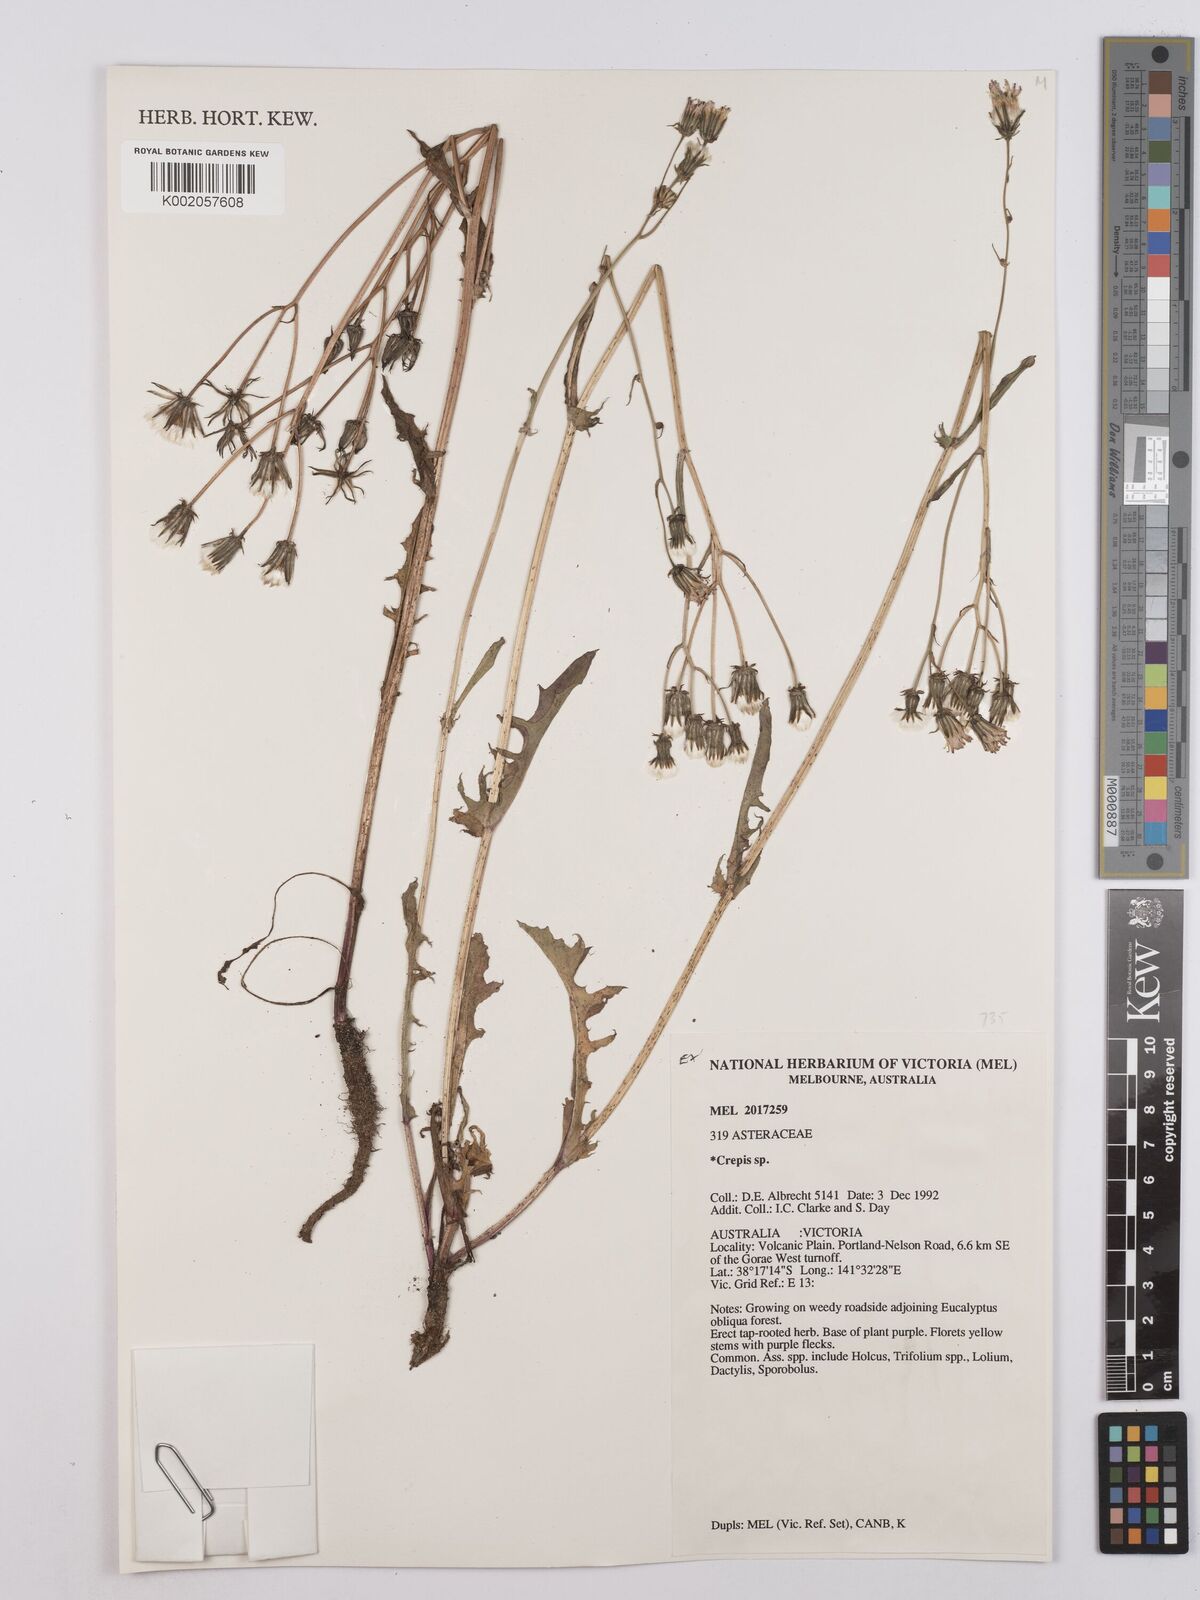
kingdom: Plantae
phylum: Tracheophyta
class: Magnoliopsida
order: Asterales
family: Asteraceae
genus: Crepis
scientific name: Crepis
